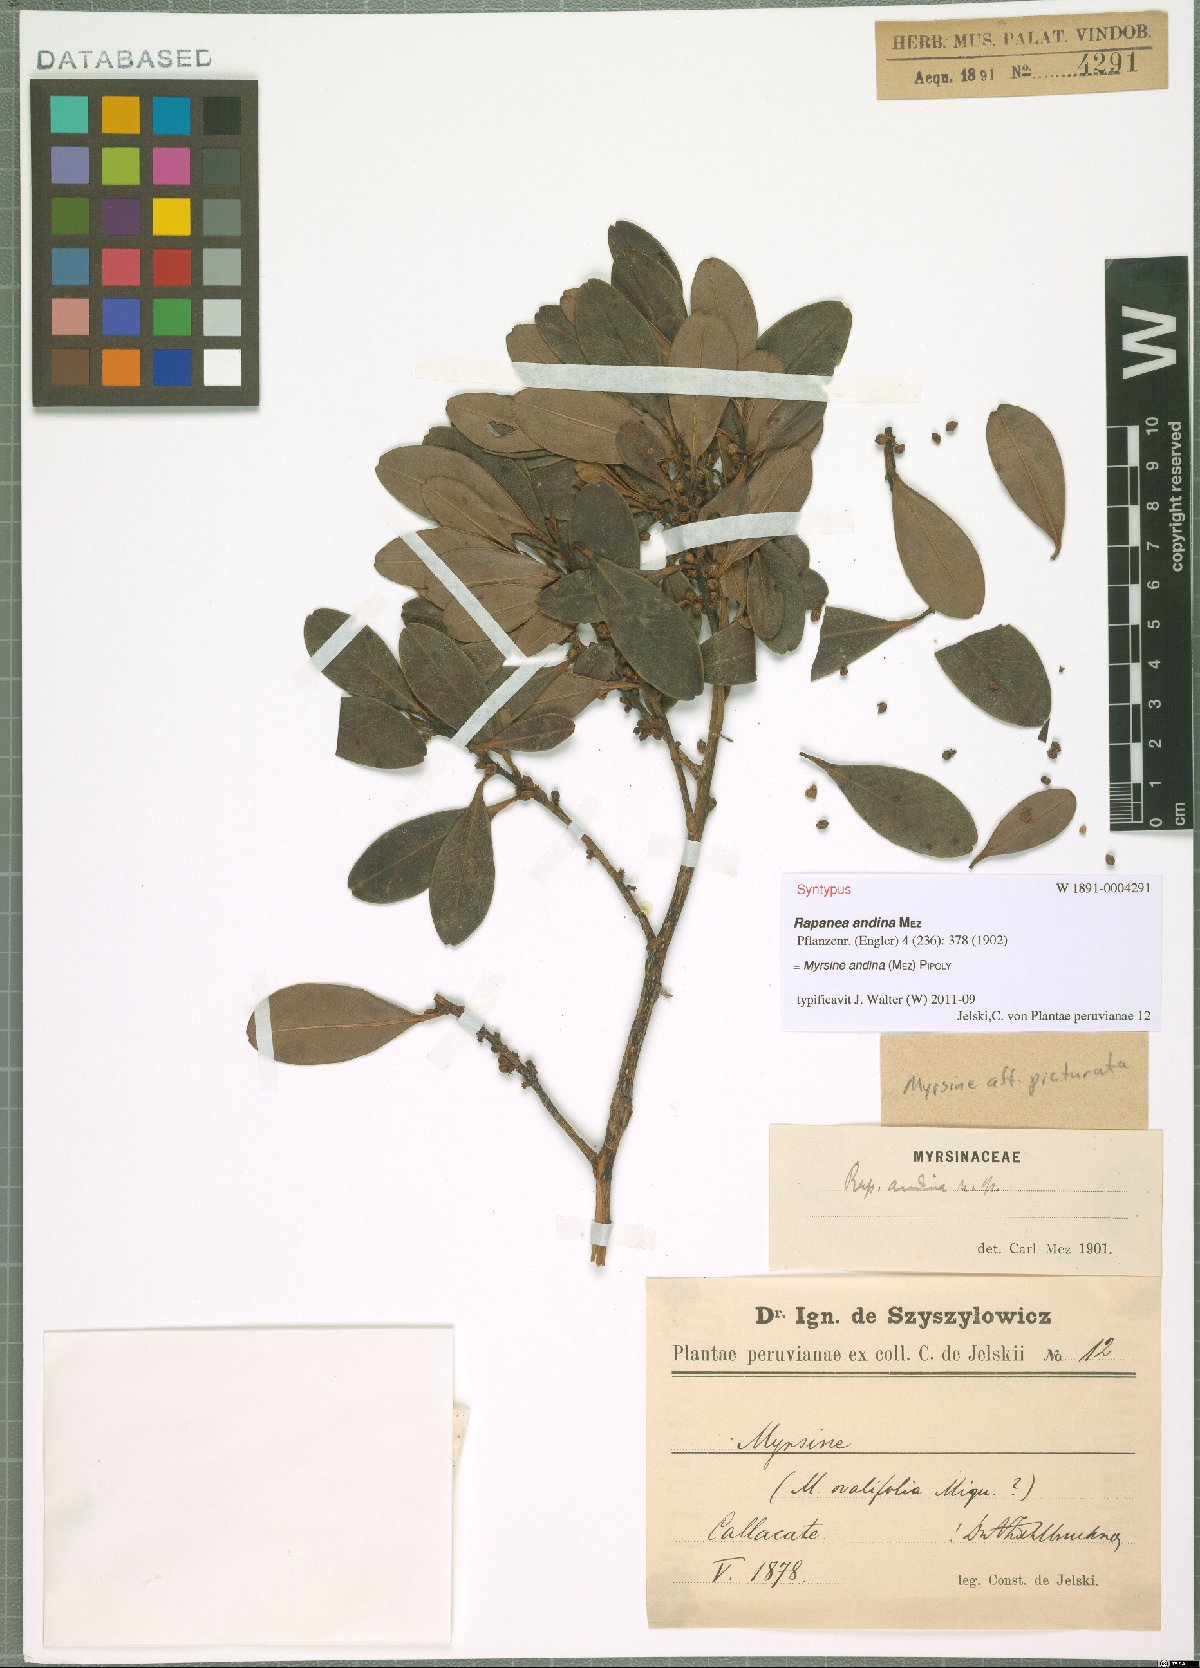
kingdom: Plantae
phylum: Tracheophyta
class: Magnoliopsida
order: Ericales
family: Primulaceae
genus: Myrsine
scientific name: Myrsine andina
